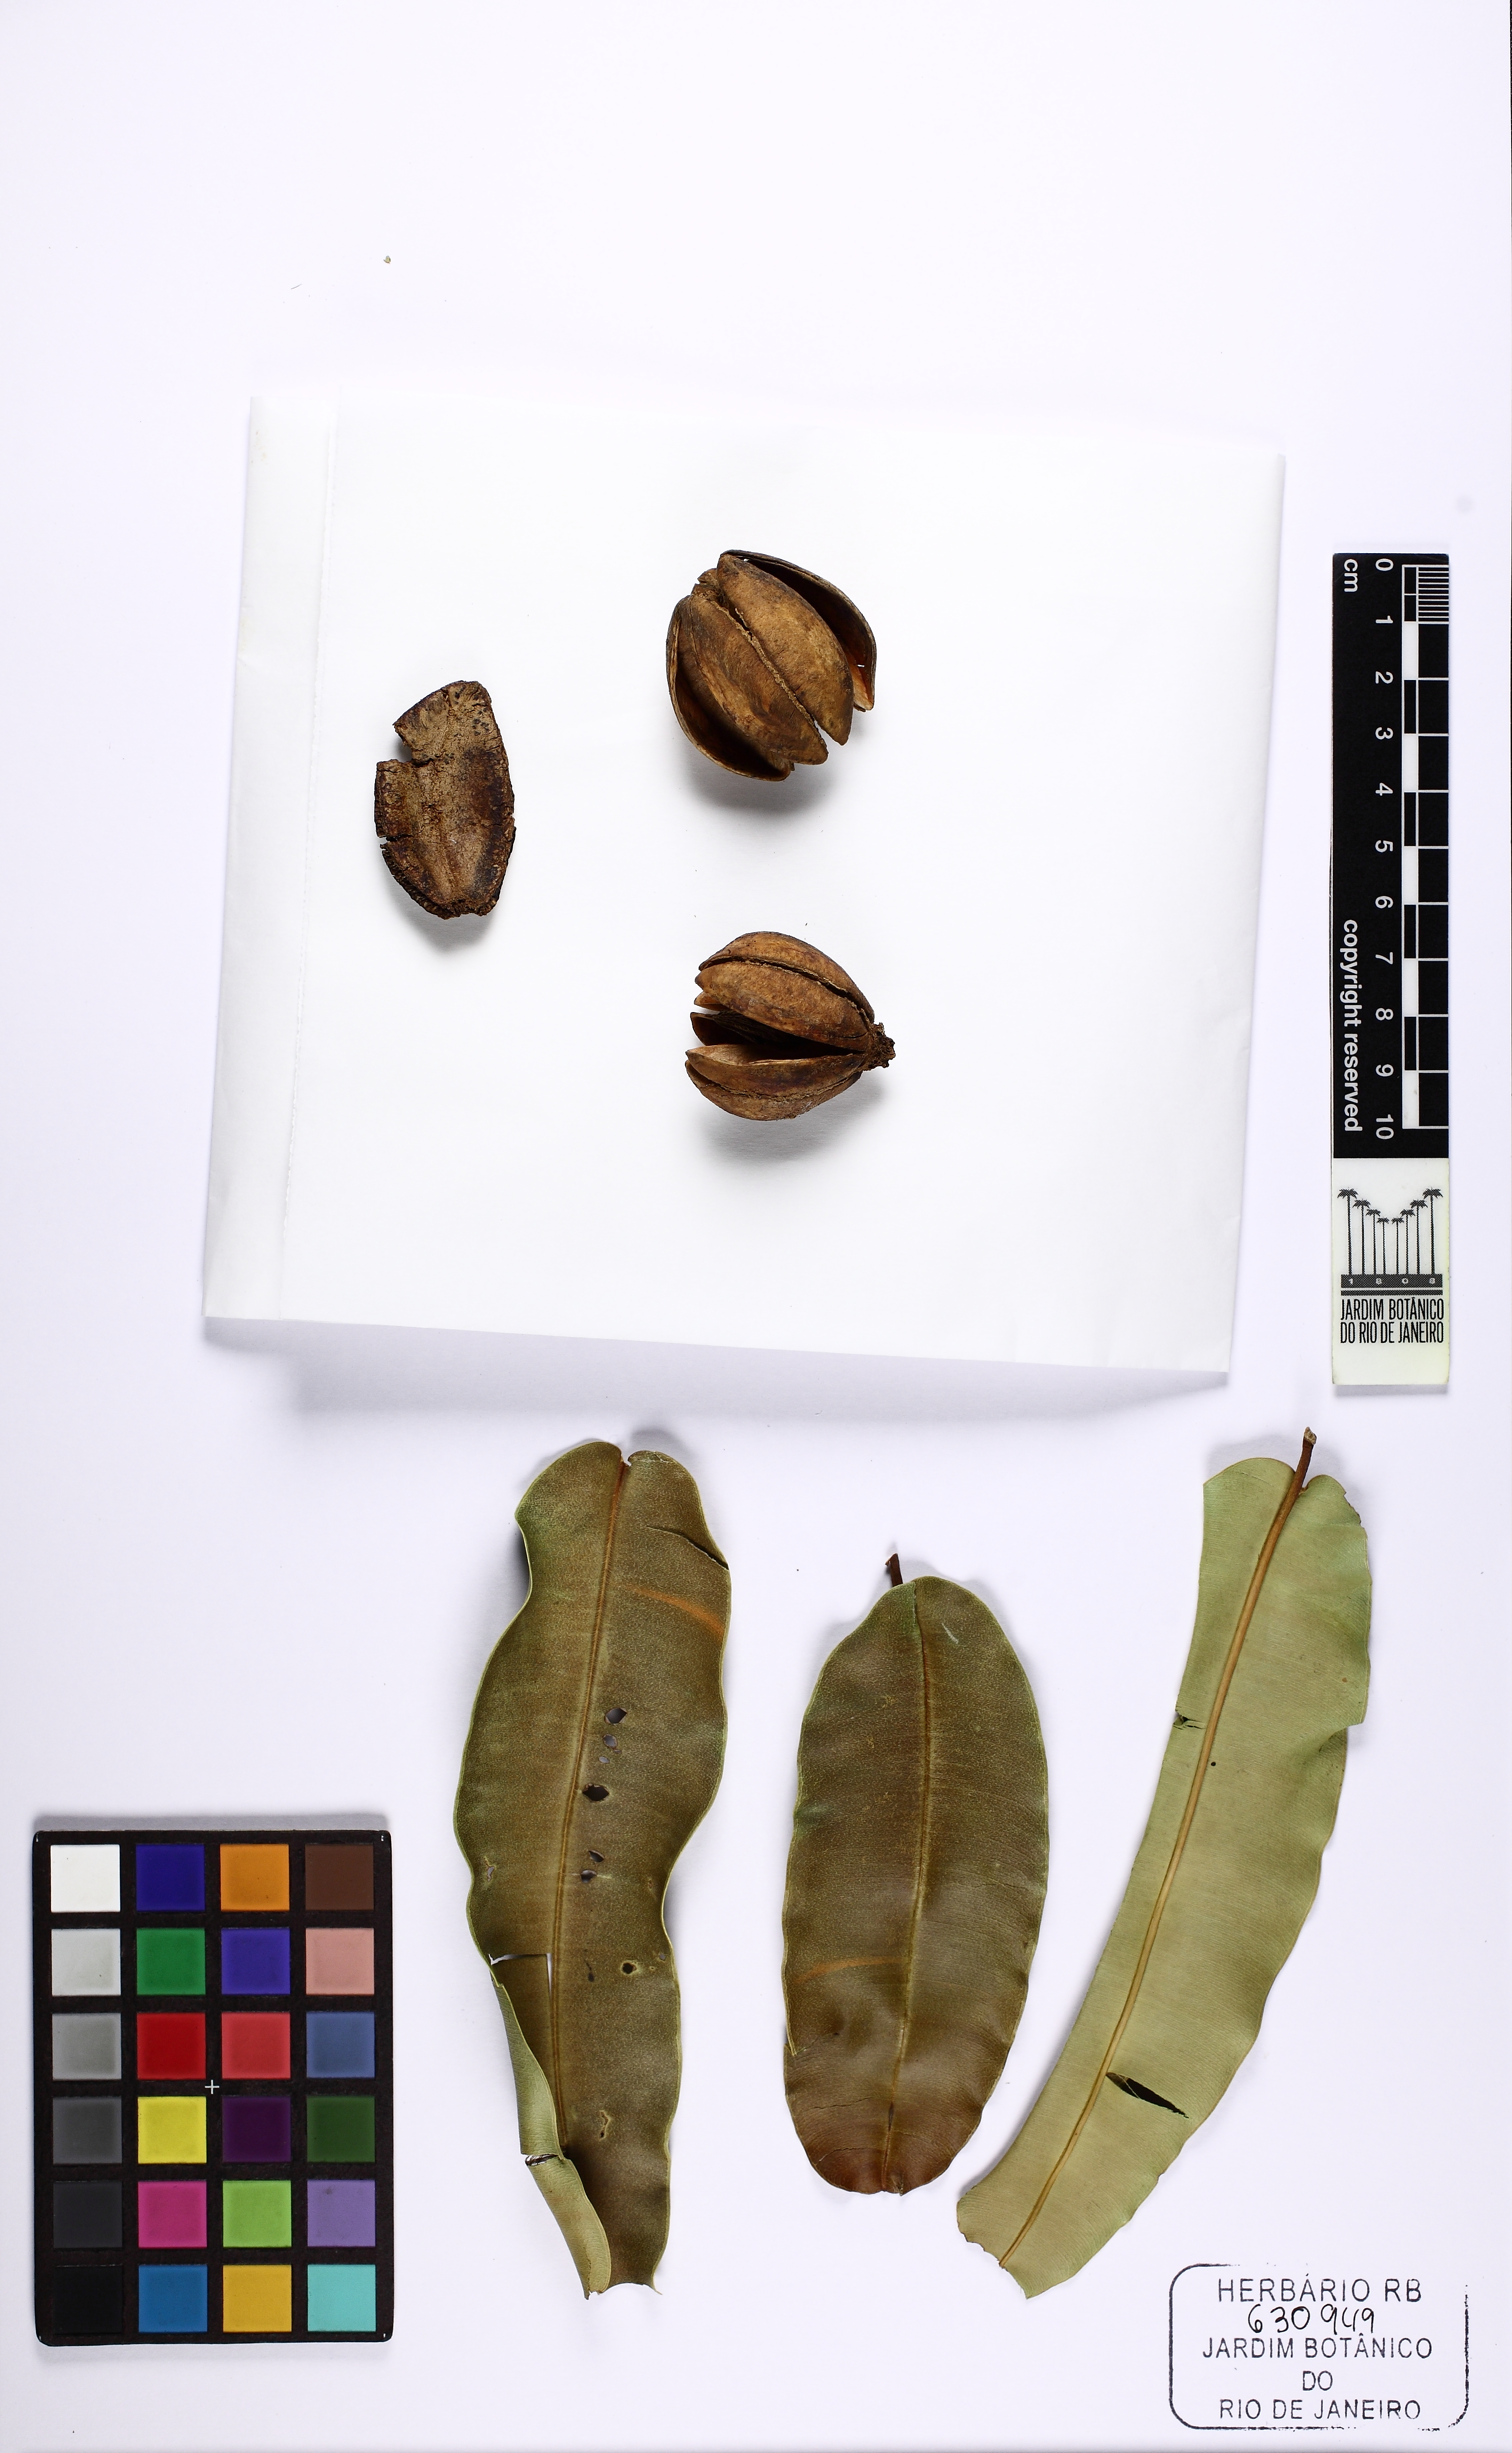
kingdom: Plantae
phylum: Tracheophyta
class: Magnoliopsida
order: Myrtales
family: Vochysiaceae
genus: Qualea
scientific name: Qualea
